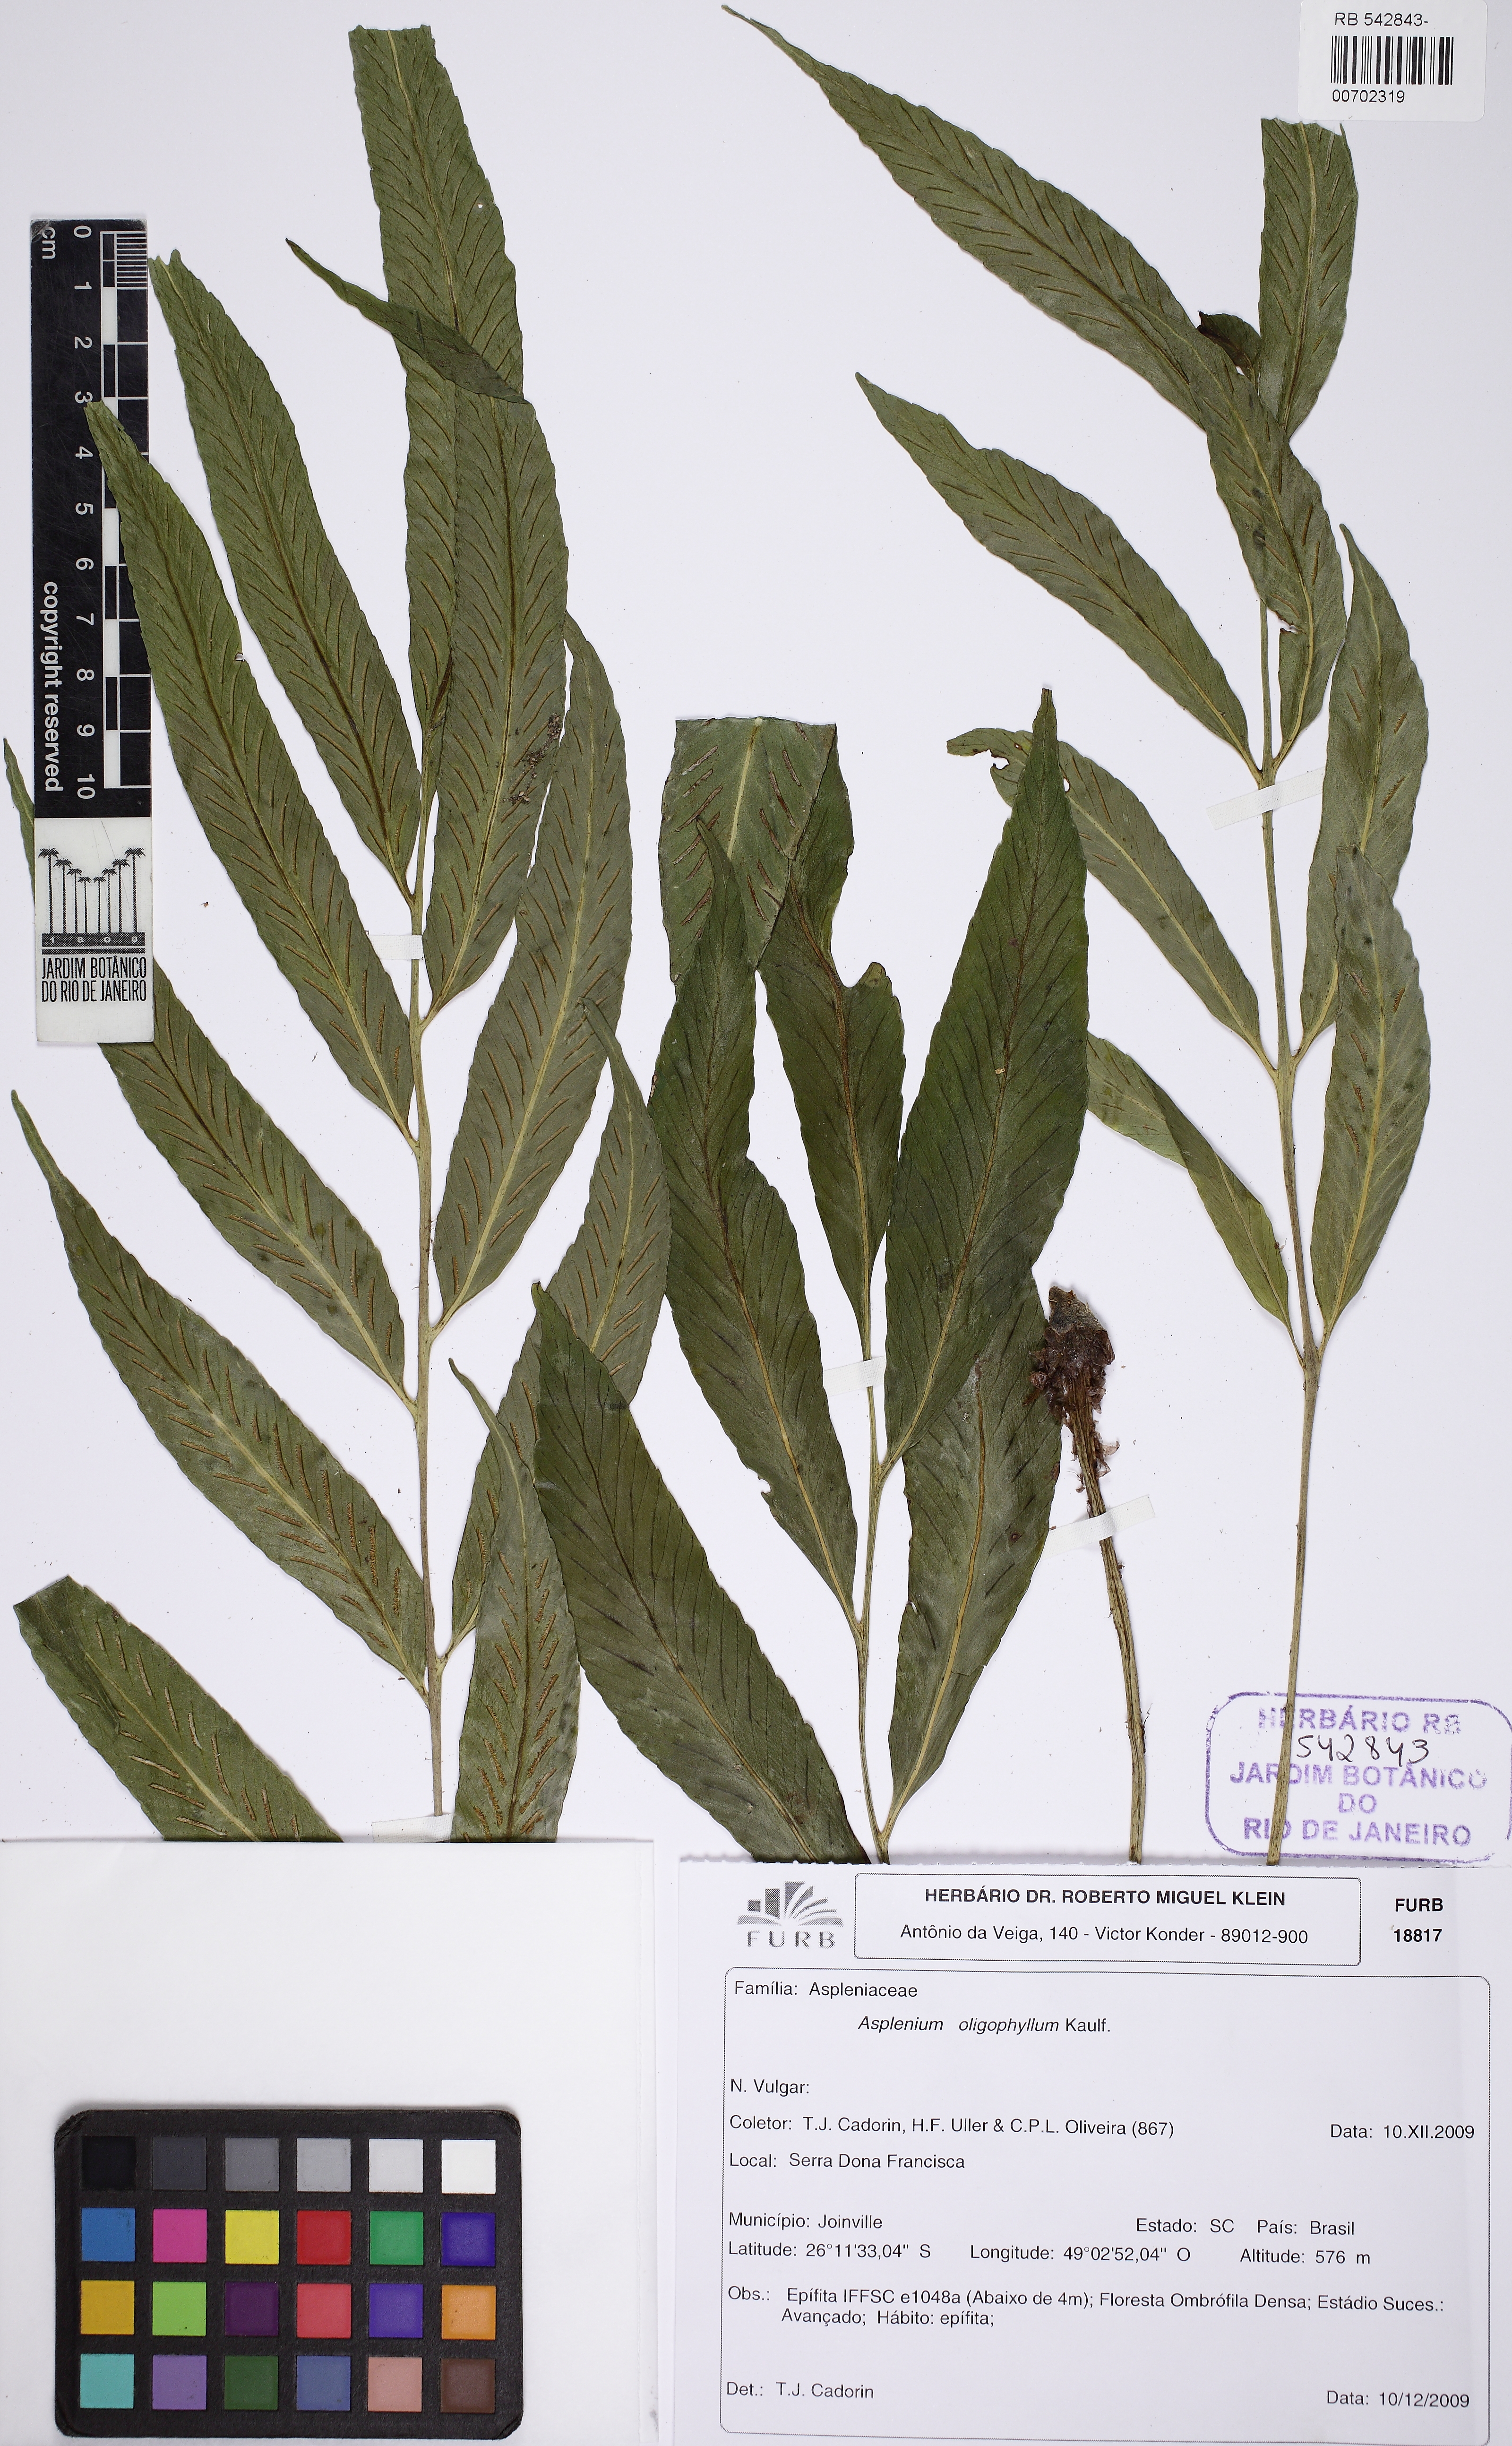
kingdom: Plantae
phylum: Tracheophyta
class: Polypodiopsida
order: Polypodiales
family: Aspleniaceae
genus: Asplenium
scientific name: Asplenium oligophyllum
